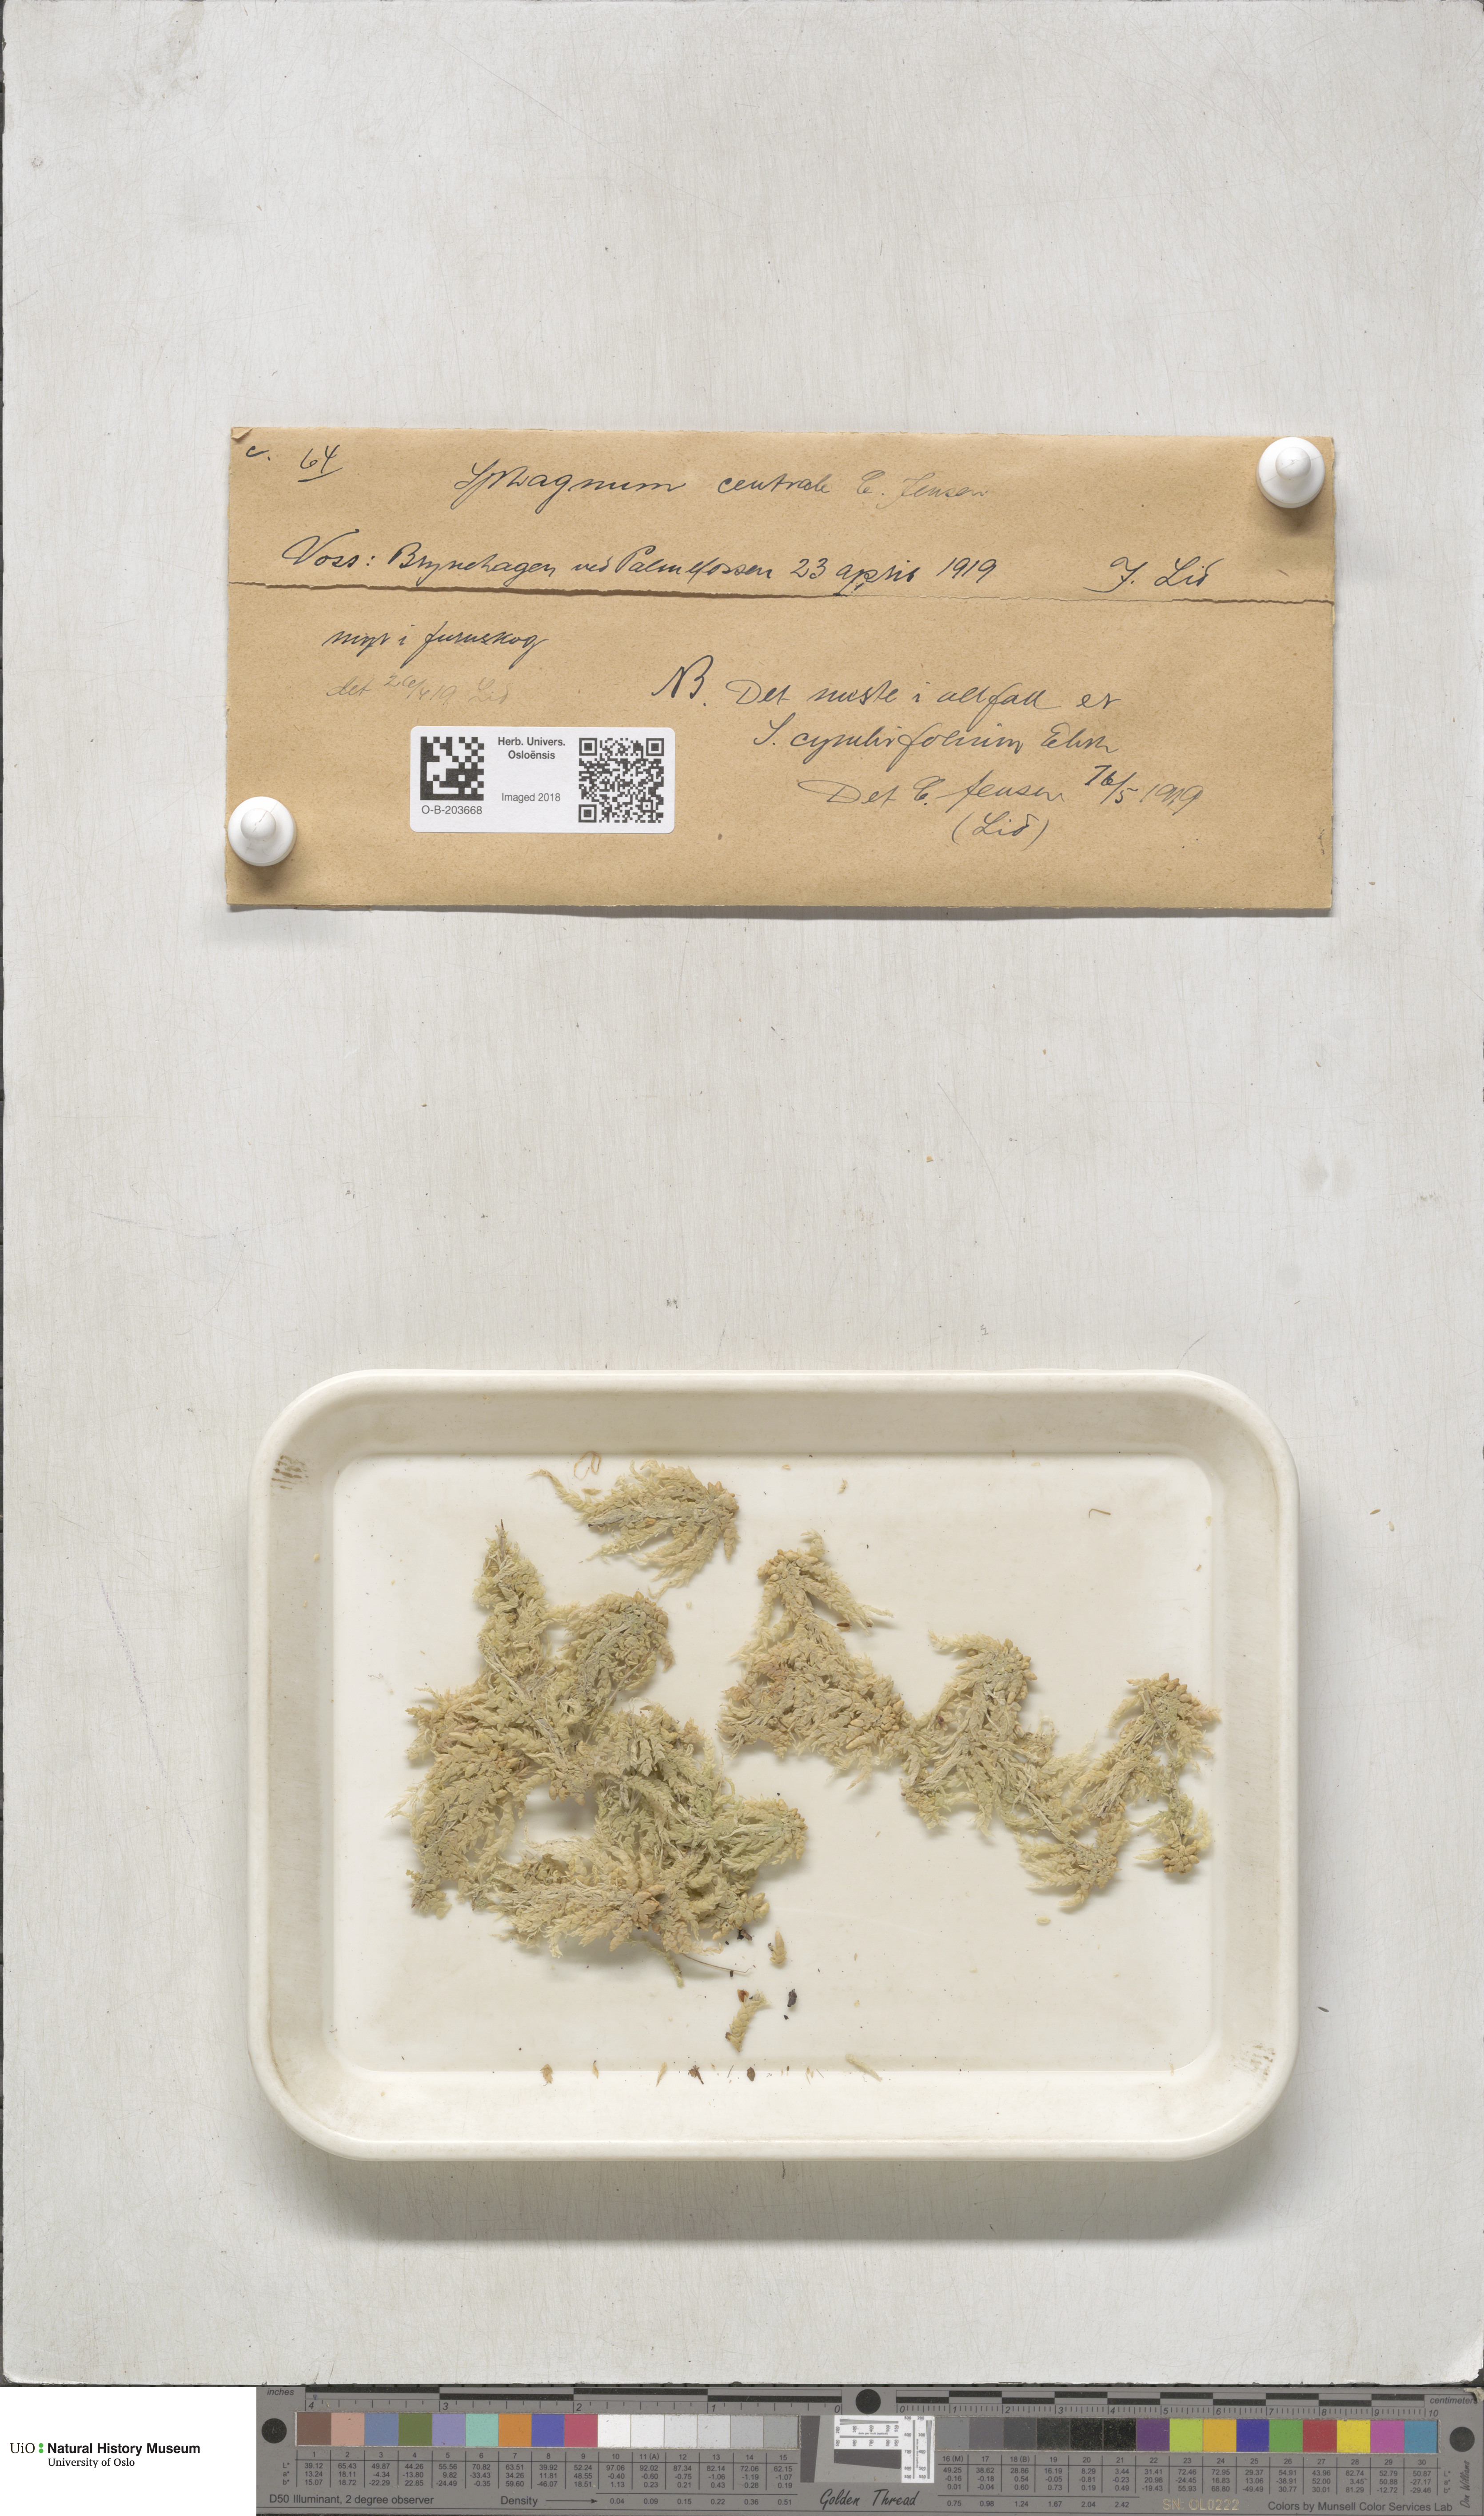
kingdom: Plantae
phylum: Bryophyta
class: Sphagnopsida
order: Sphagnales
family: Sphagnaceae
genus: Sphagnum
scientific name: Sphagnum palustre
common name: Blunt-leaved bog-moss
